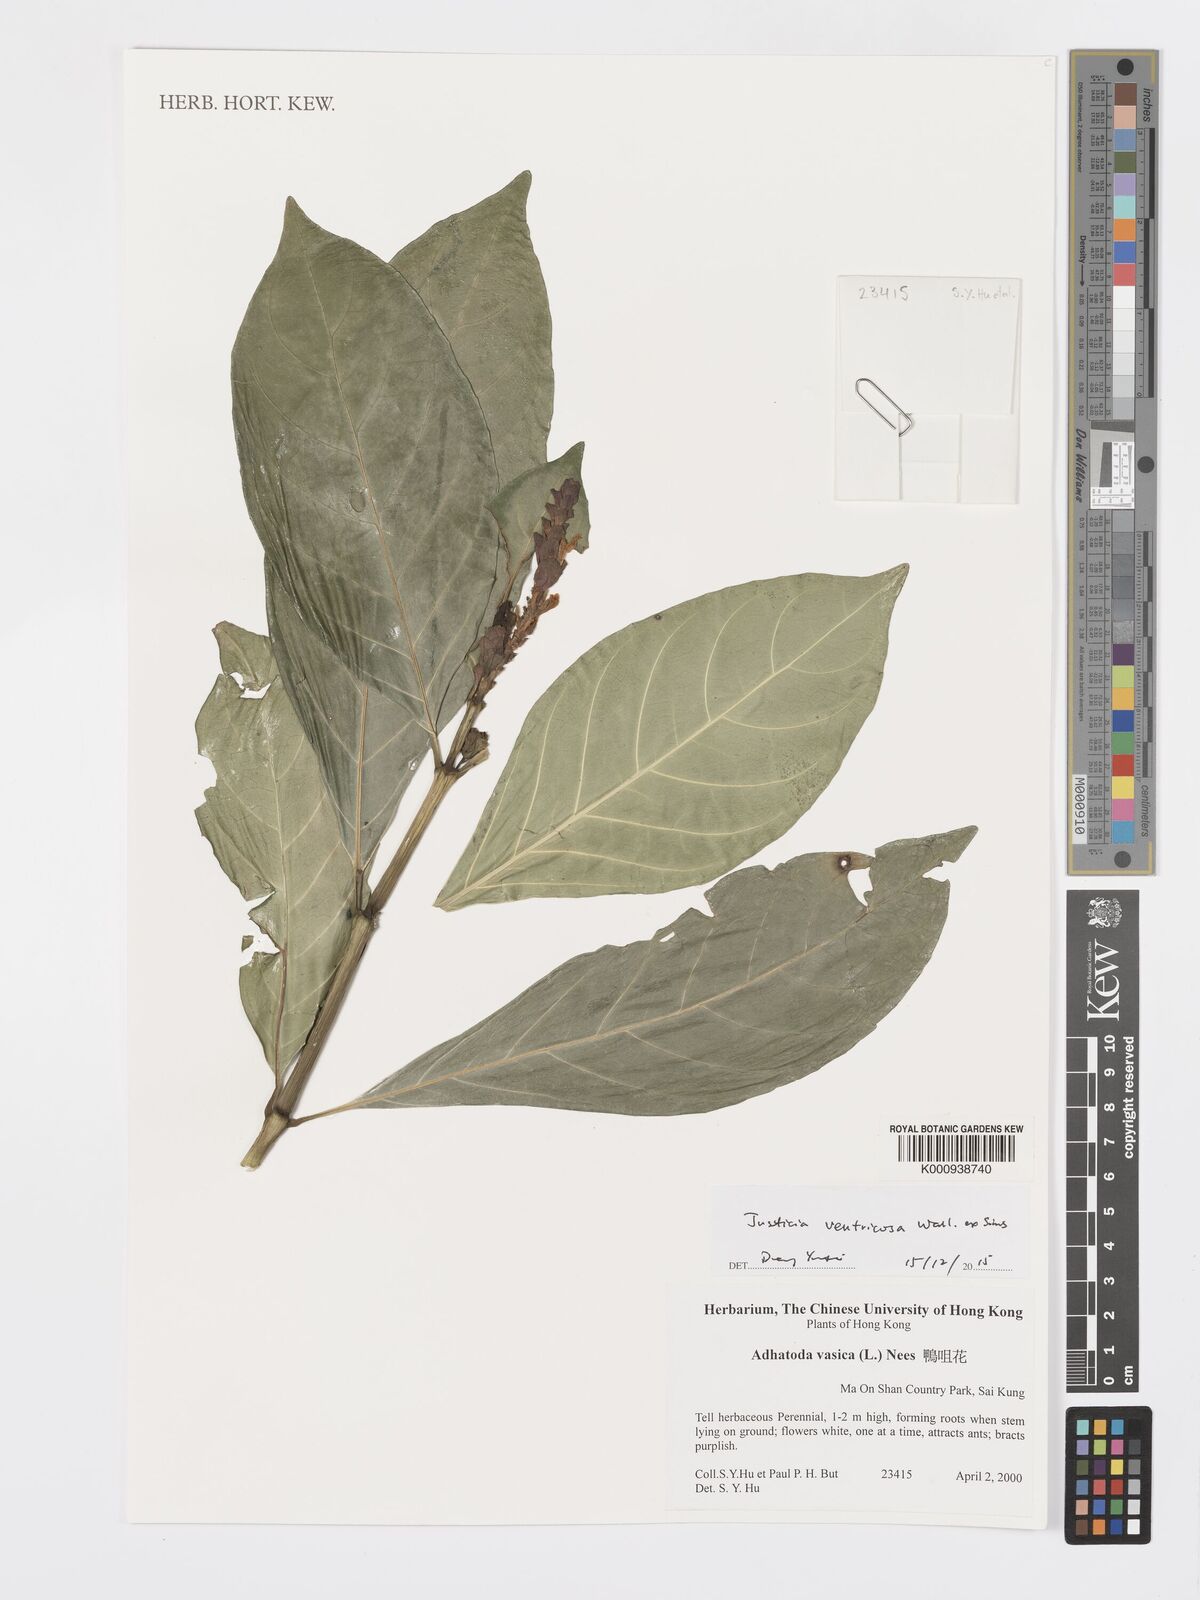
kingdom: Plantae
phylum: Tracheophyta
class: Magnoliopsida
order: Lamiales
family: Acanthaceae
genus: Justicia
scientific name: Justicia
